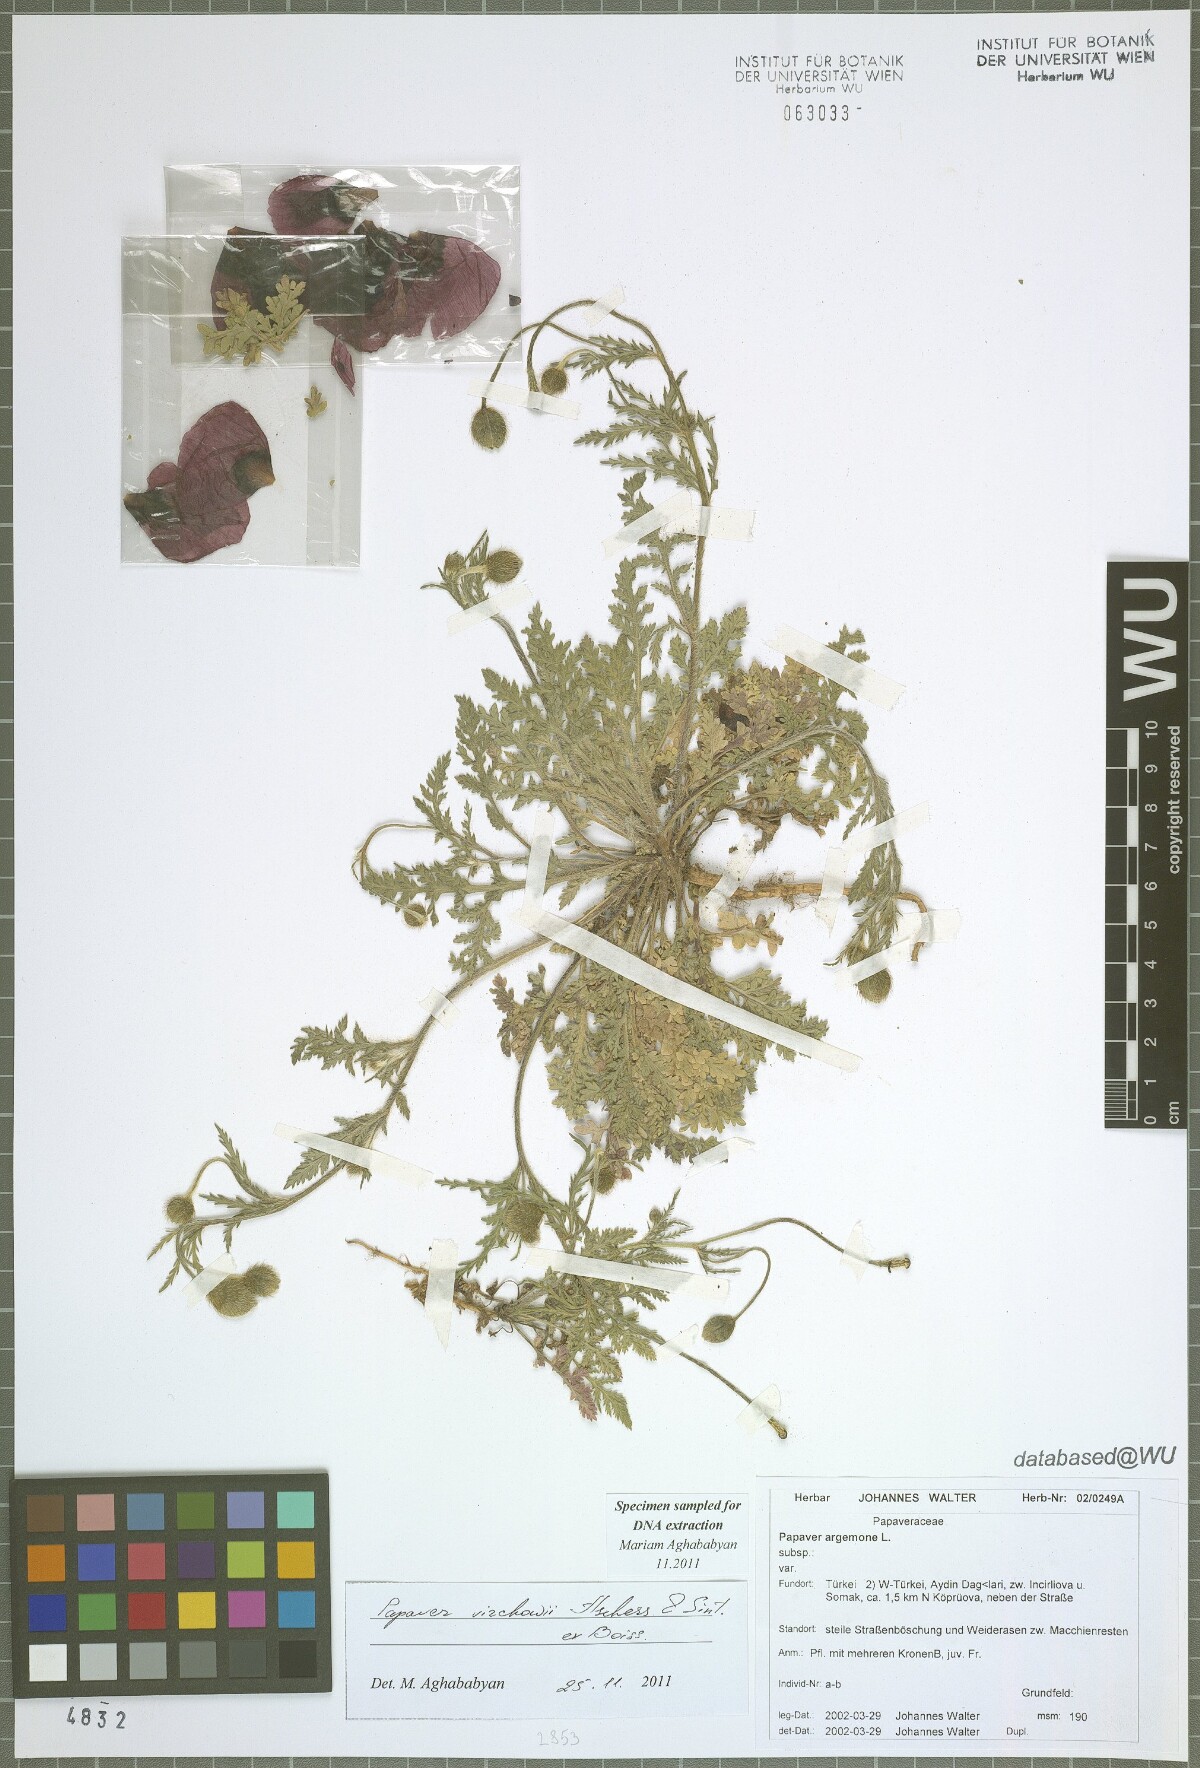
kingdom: Plantae
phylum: Tracheophyta
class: Magnoliopsida
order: Ranunculales
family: Papaveraceae
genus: Roemeria
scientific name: Roemeria virchowii
